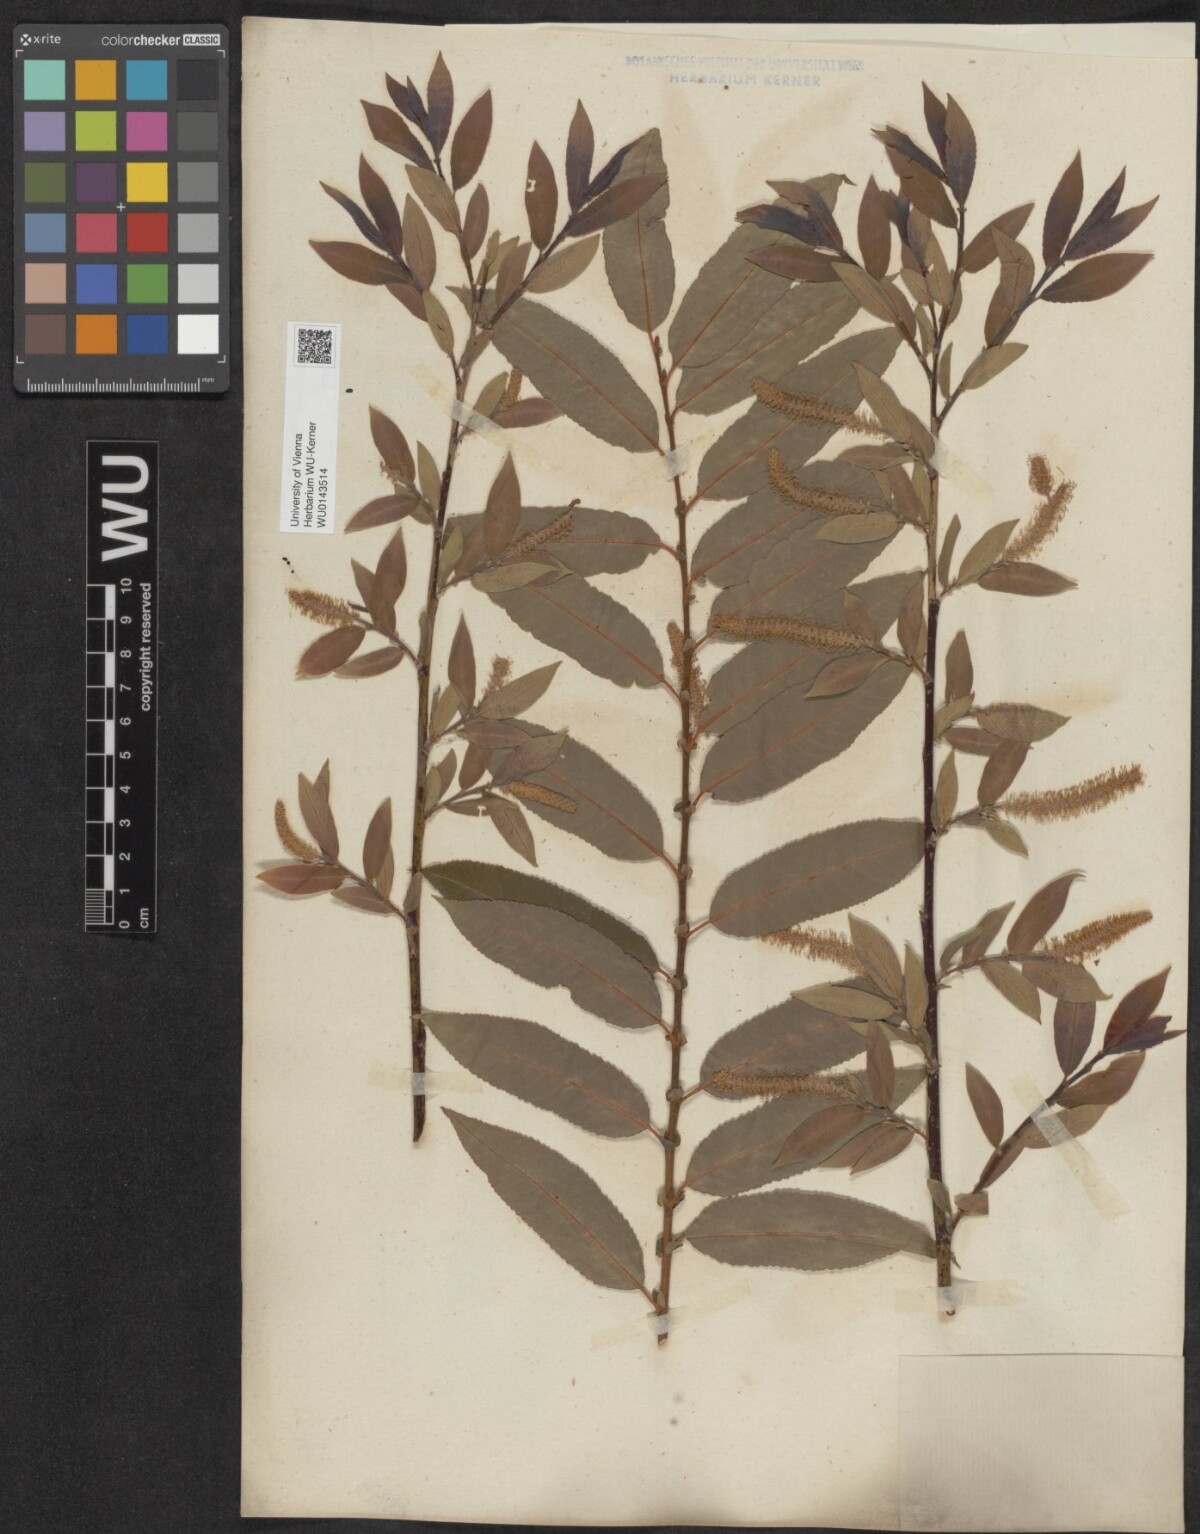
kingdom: Plantae
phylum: Tracheophyta
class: Magnoliopsida
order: Malpighiales
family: Salicaceae
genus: Salix
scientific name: Salix triandra
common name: Almond willow
